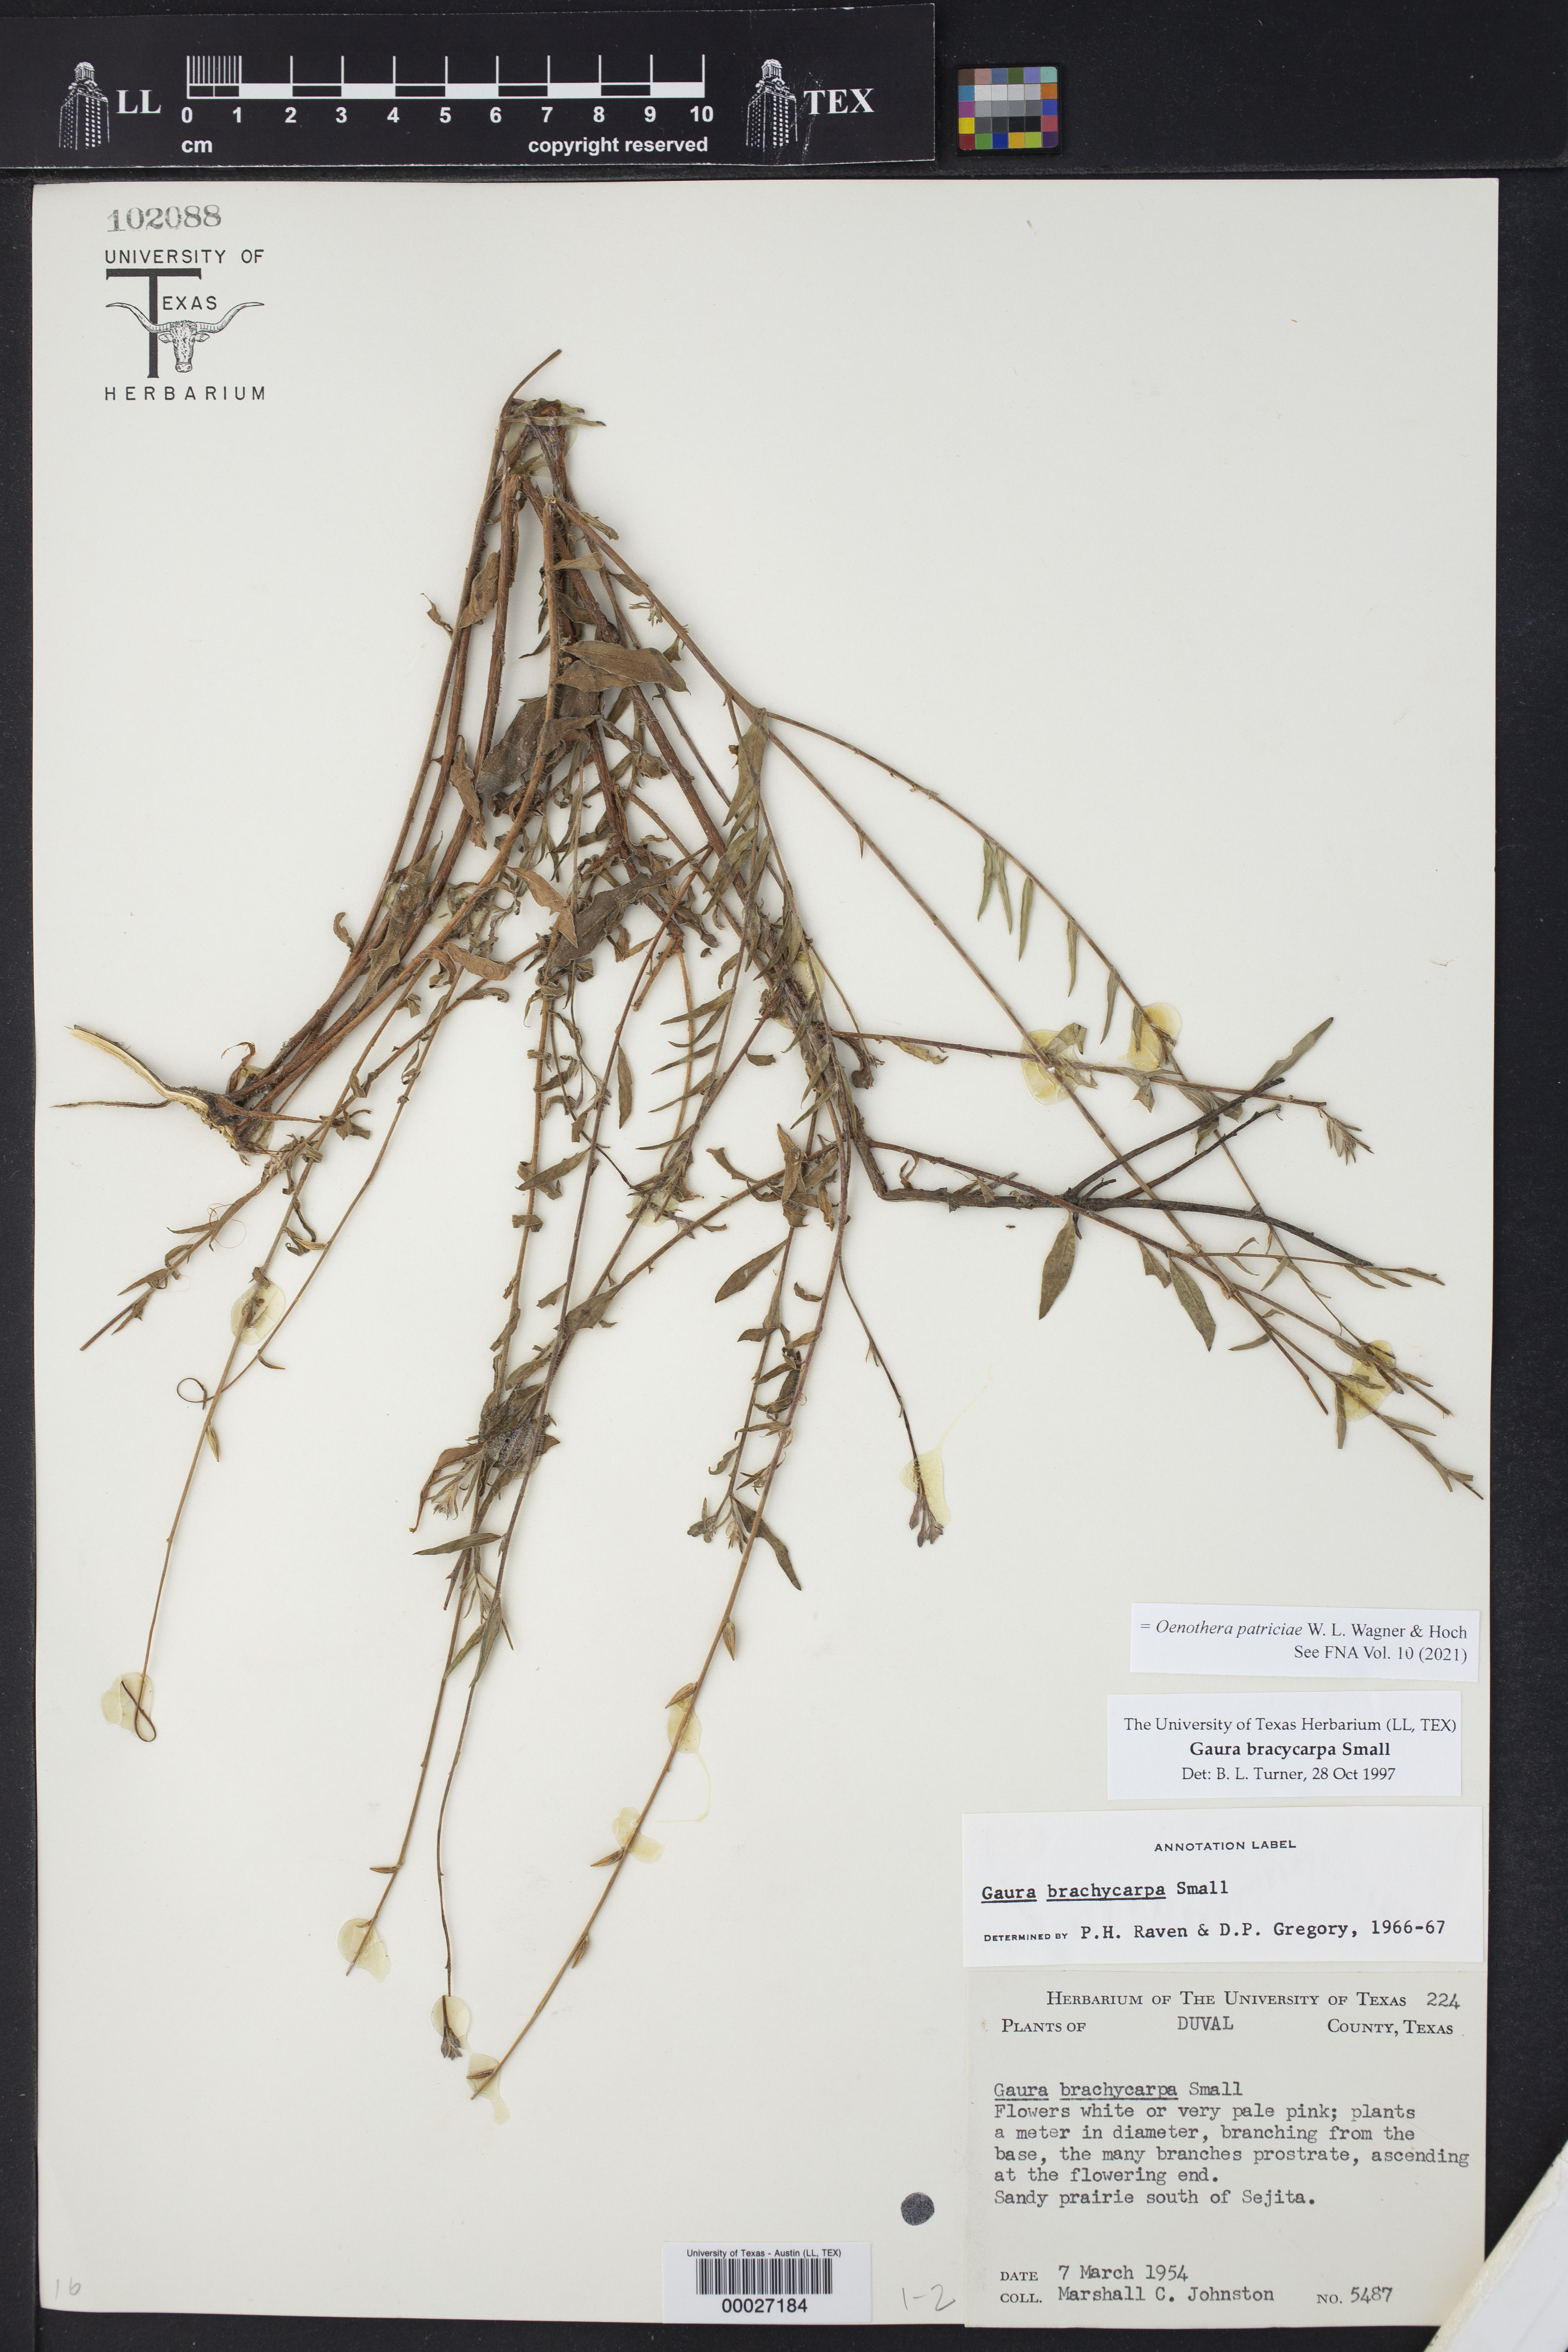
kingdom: Plantae
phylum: Tracheophyta
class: Magnoliopsida
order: Myrtales
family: Onagraceae
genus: Oenothera
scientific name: Oenothera patriciae
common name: Plains beeblossom
